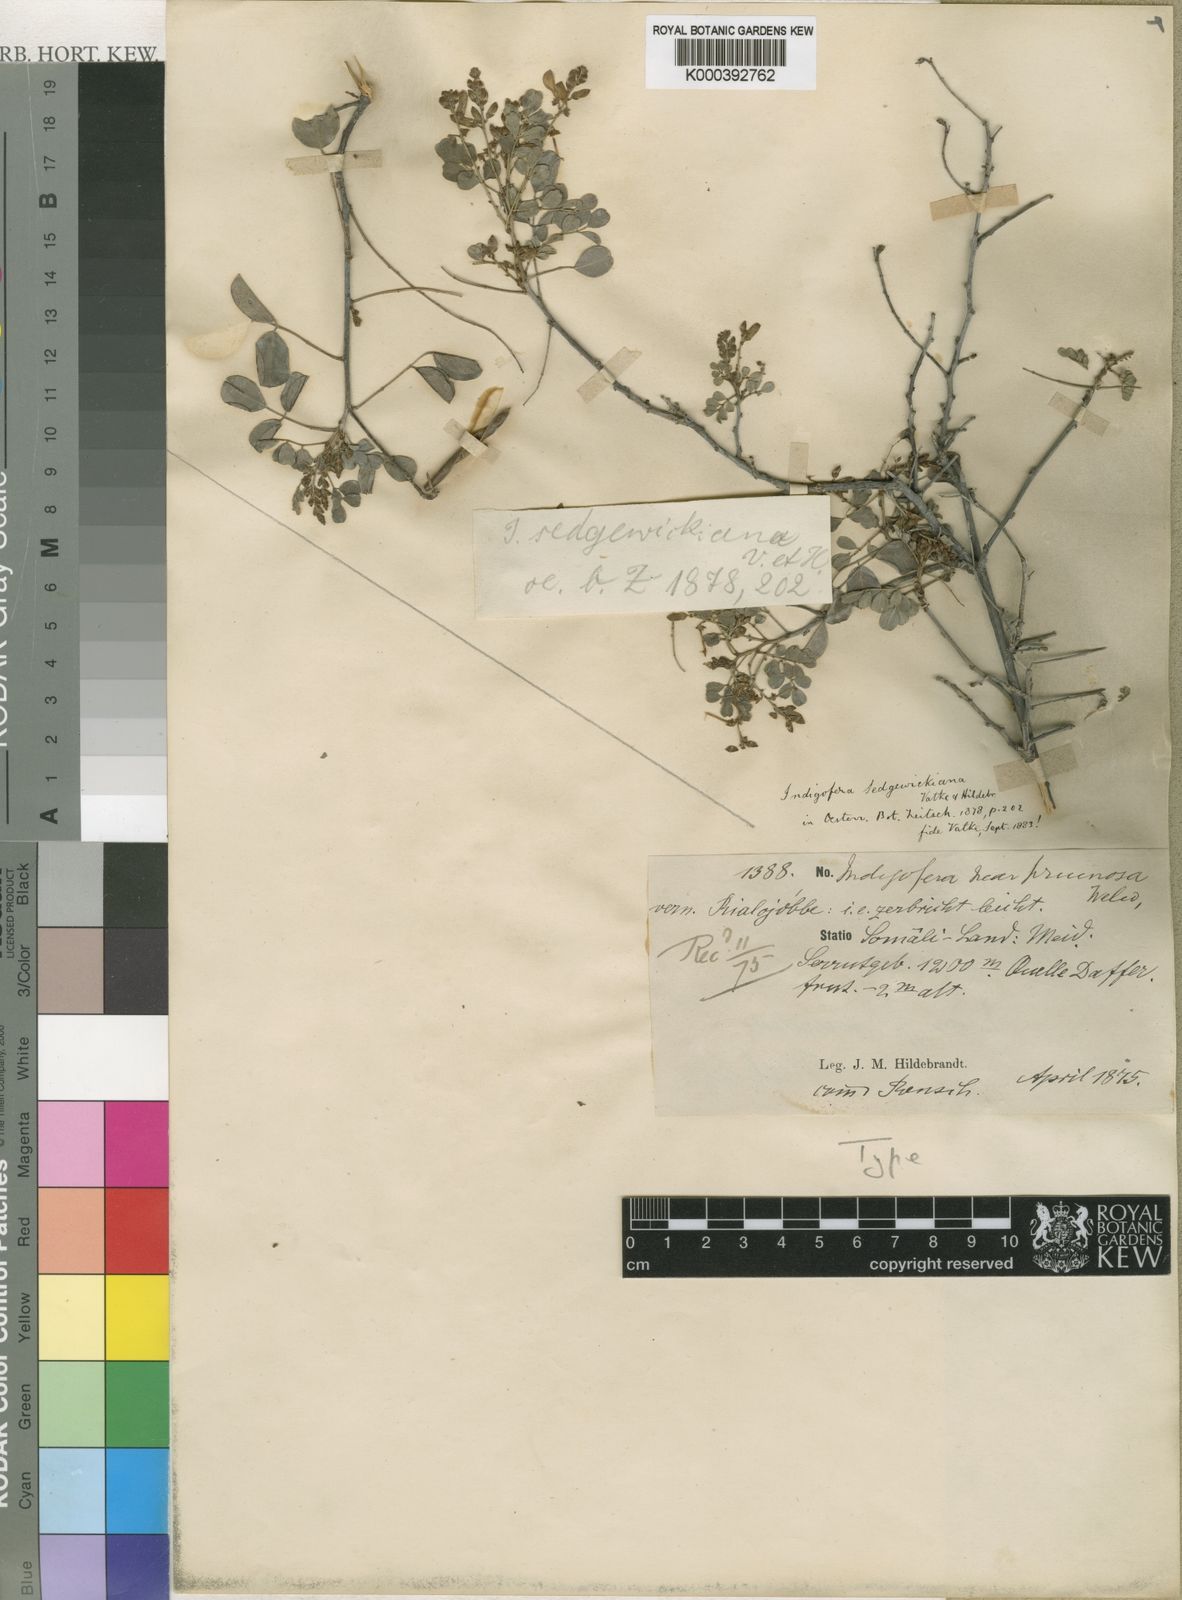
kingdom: Plantae
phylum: Tracheophyta
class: Magnoliopsida
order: Fabales
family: Fabaceae
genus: Indigofera
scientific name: Indigofera sedgewickiana
